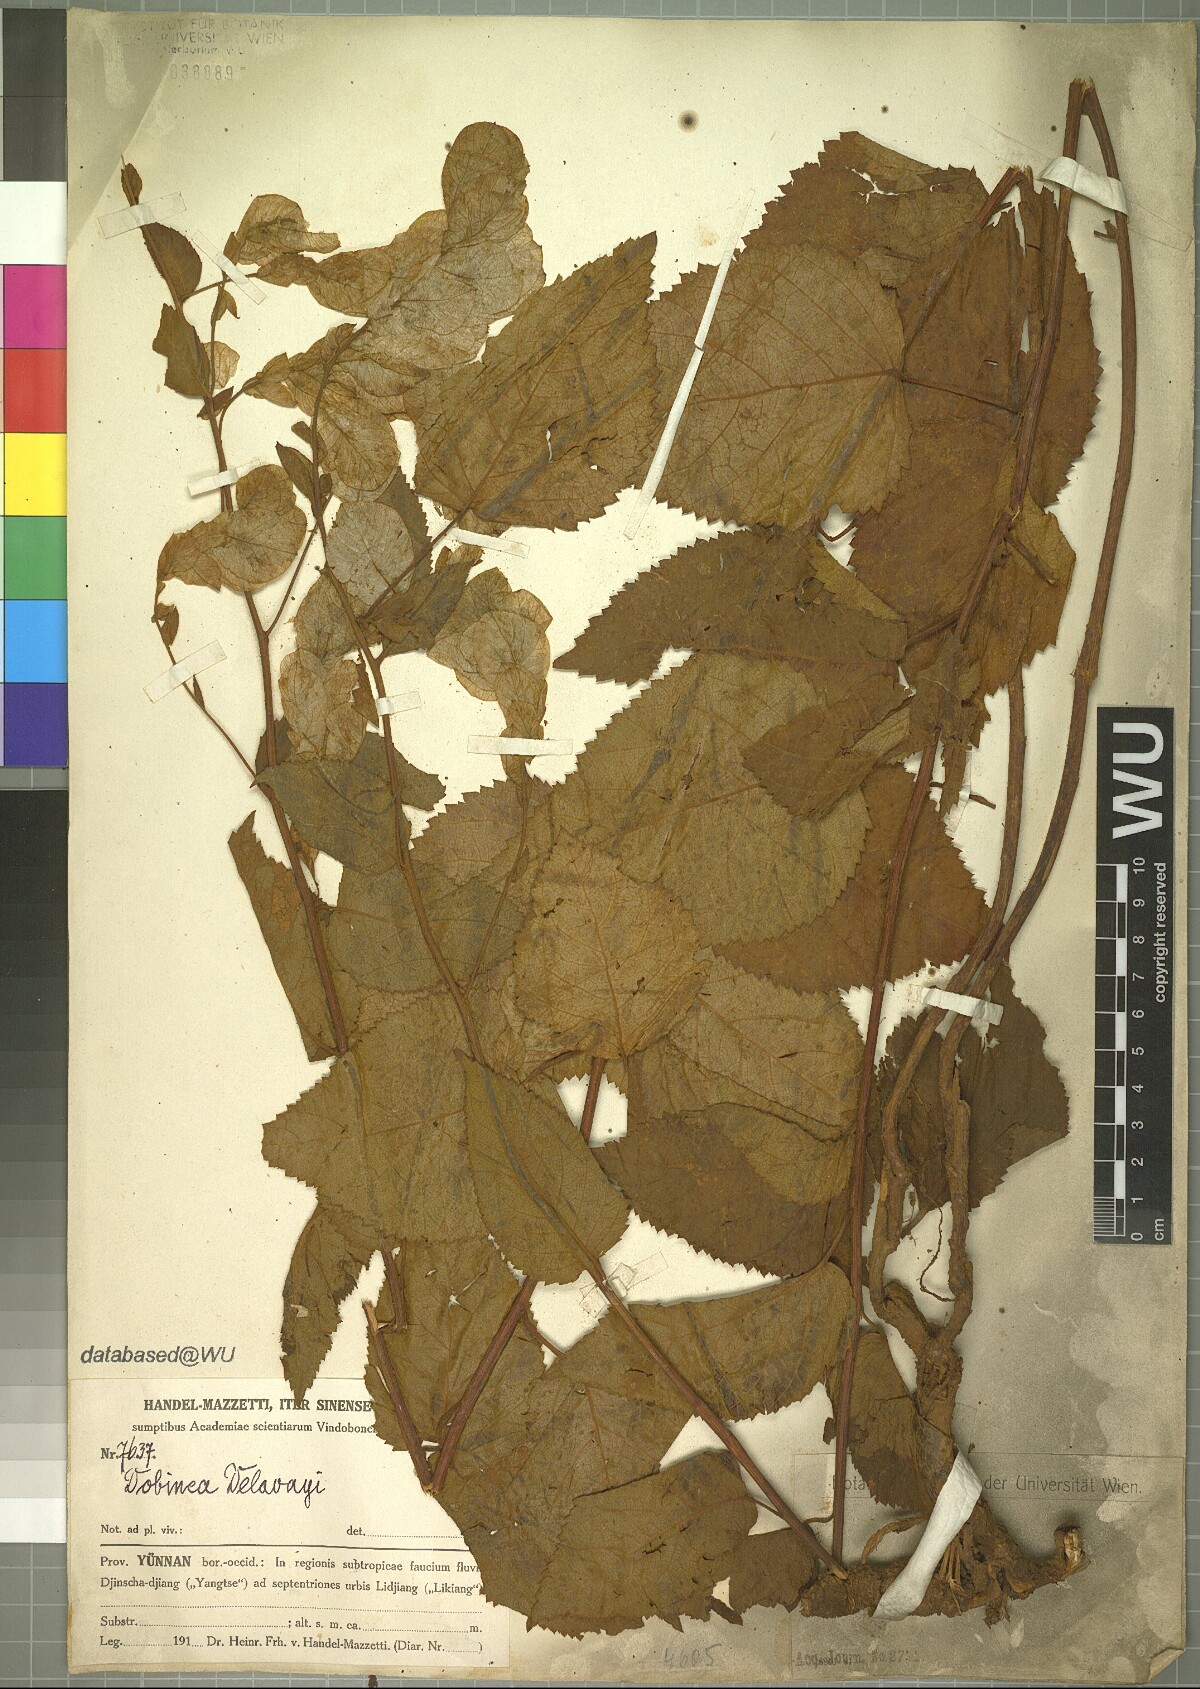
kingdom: Plantae
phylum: Tracheophyta
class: Magnoliopsida
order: Sapindales
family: Anacardiaceae
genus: Dobinea
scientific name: Dobinea delavayi
